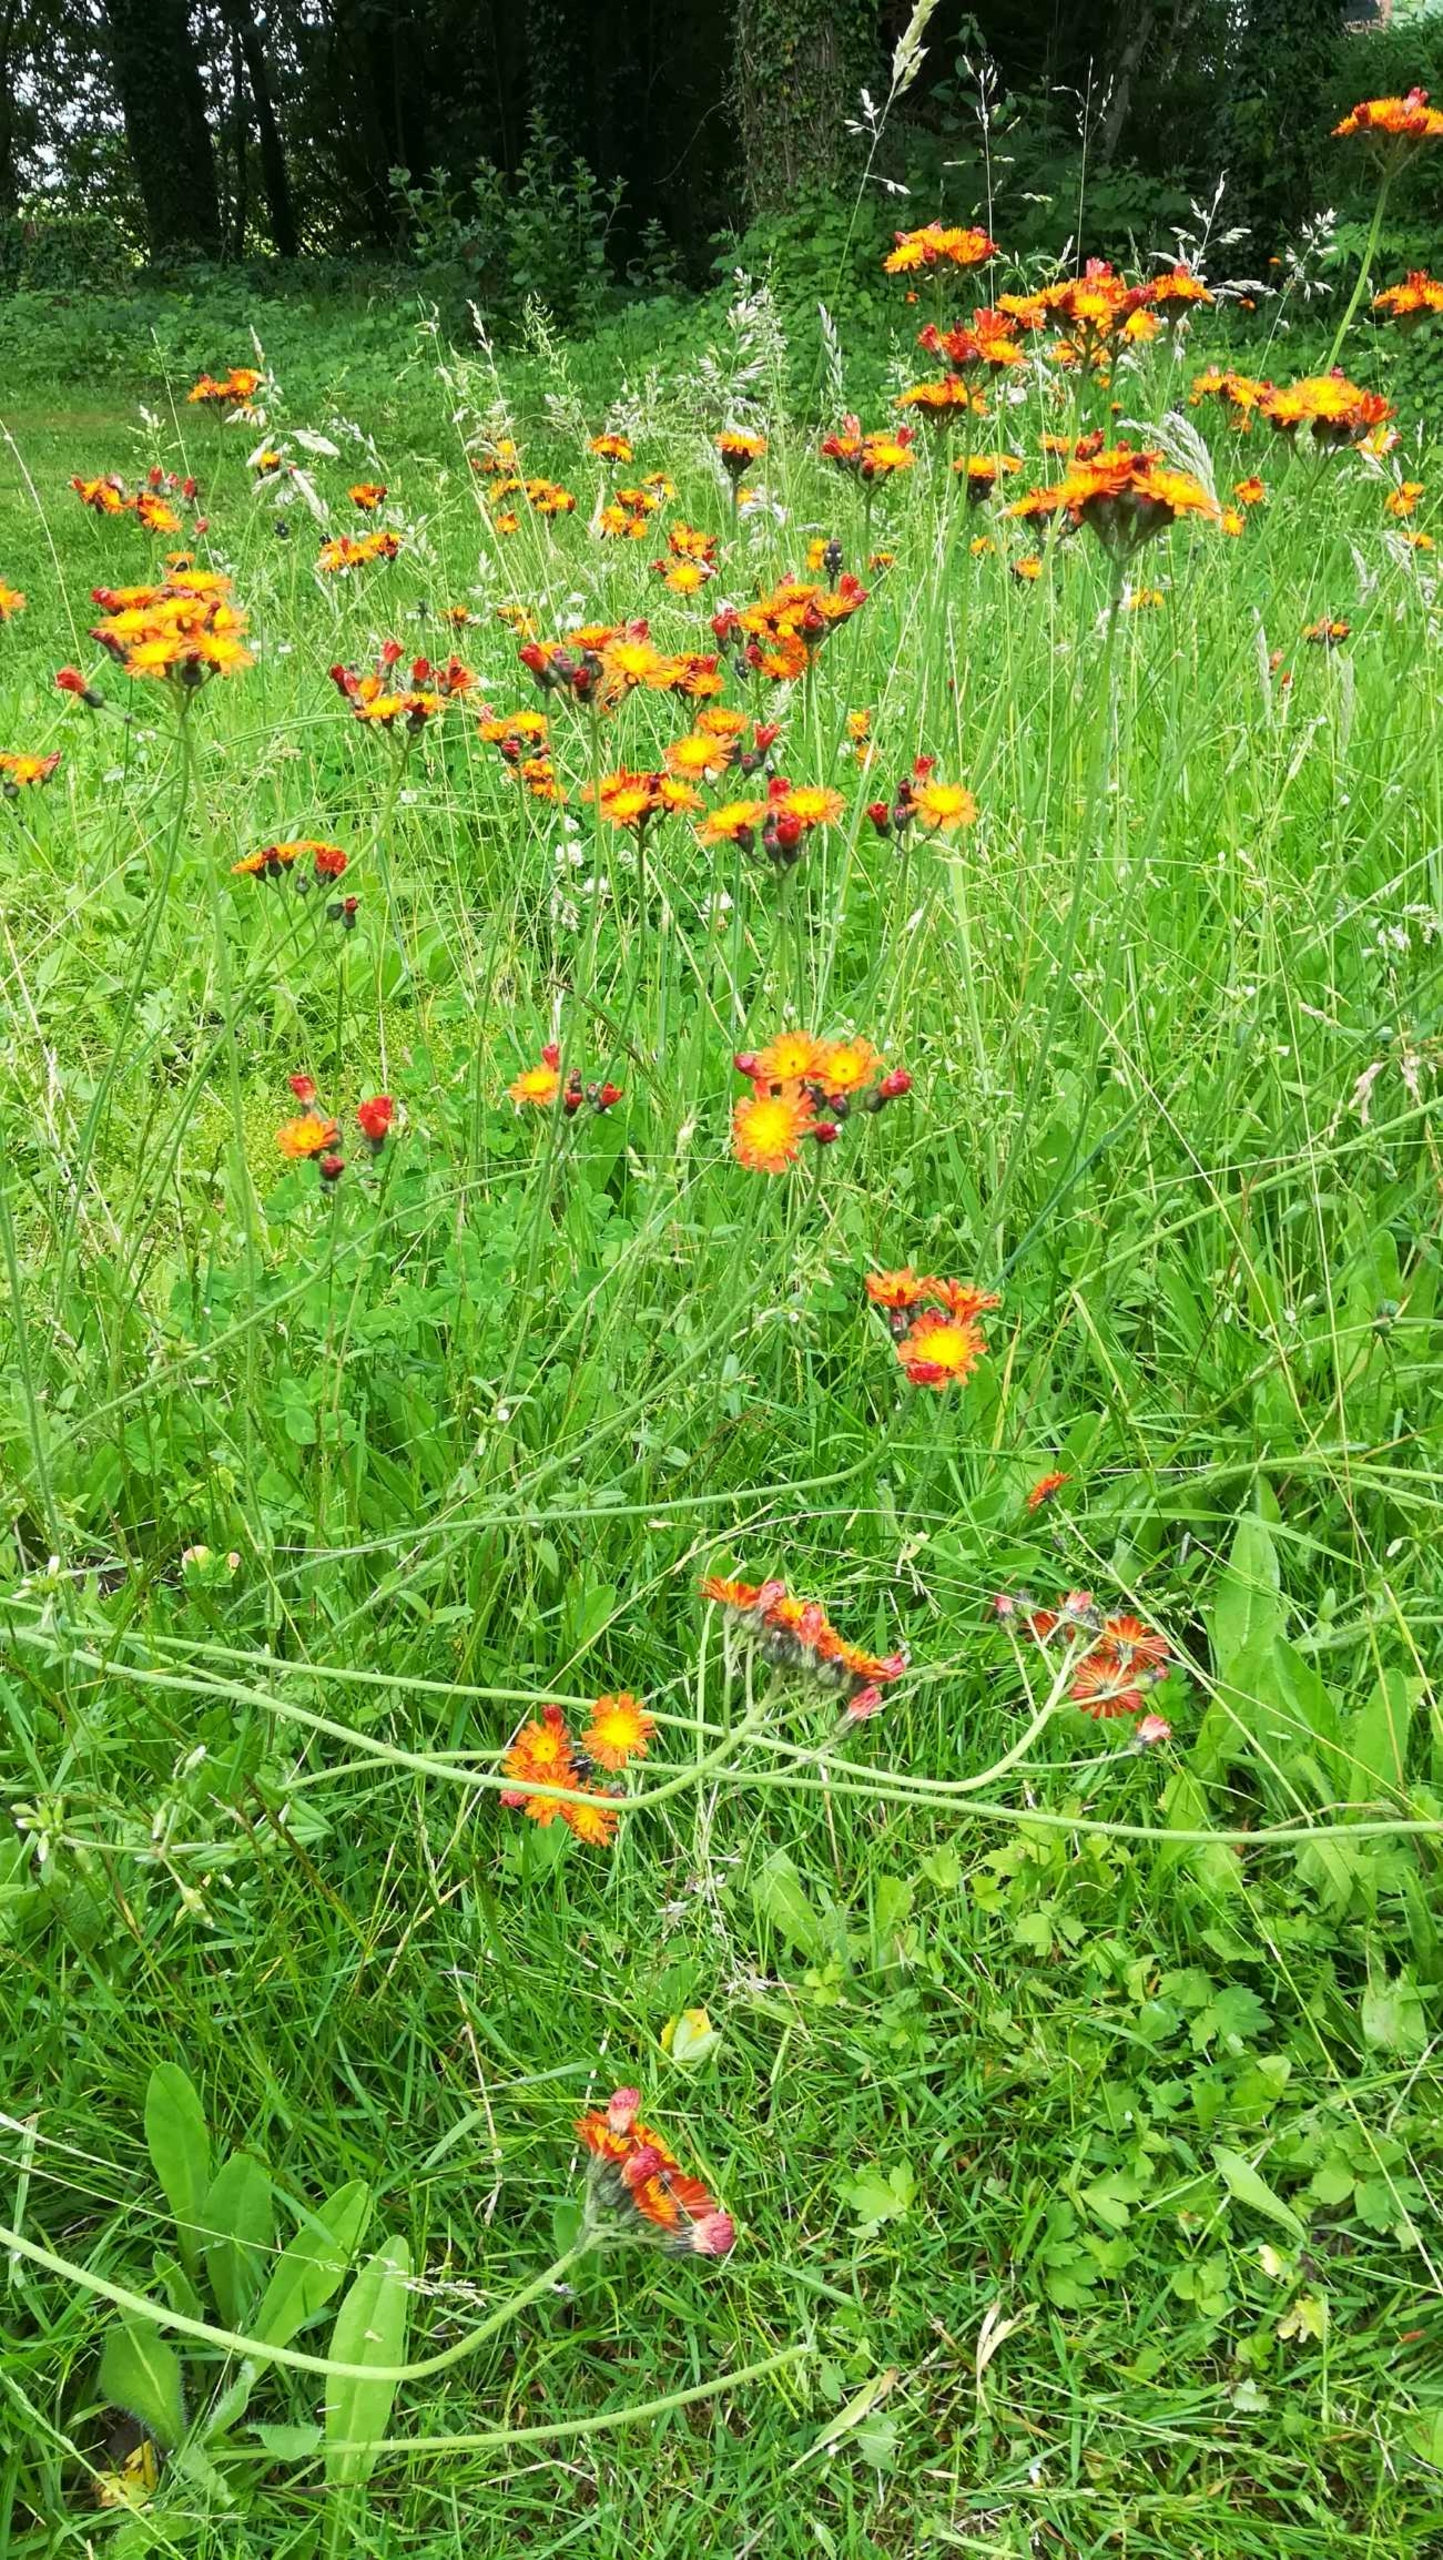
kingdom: Plantae
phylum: Tracheophyta
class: Magnoliopsida
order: Asterales
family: Asteraceae
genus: Pilosella
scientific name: Pilosella aurantiaca
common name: Pomerans-høgeurt
